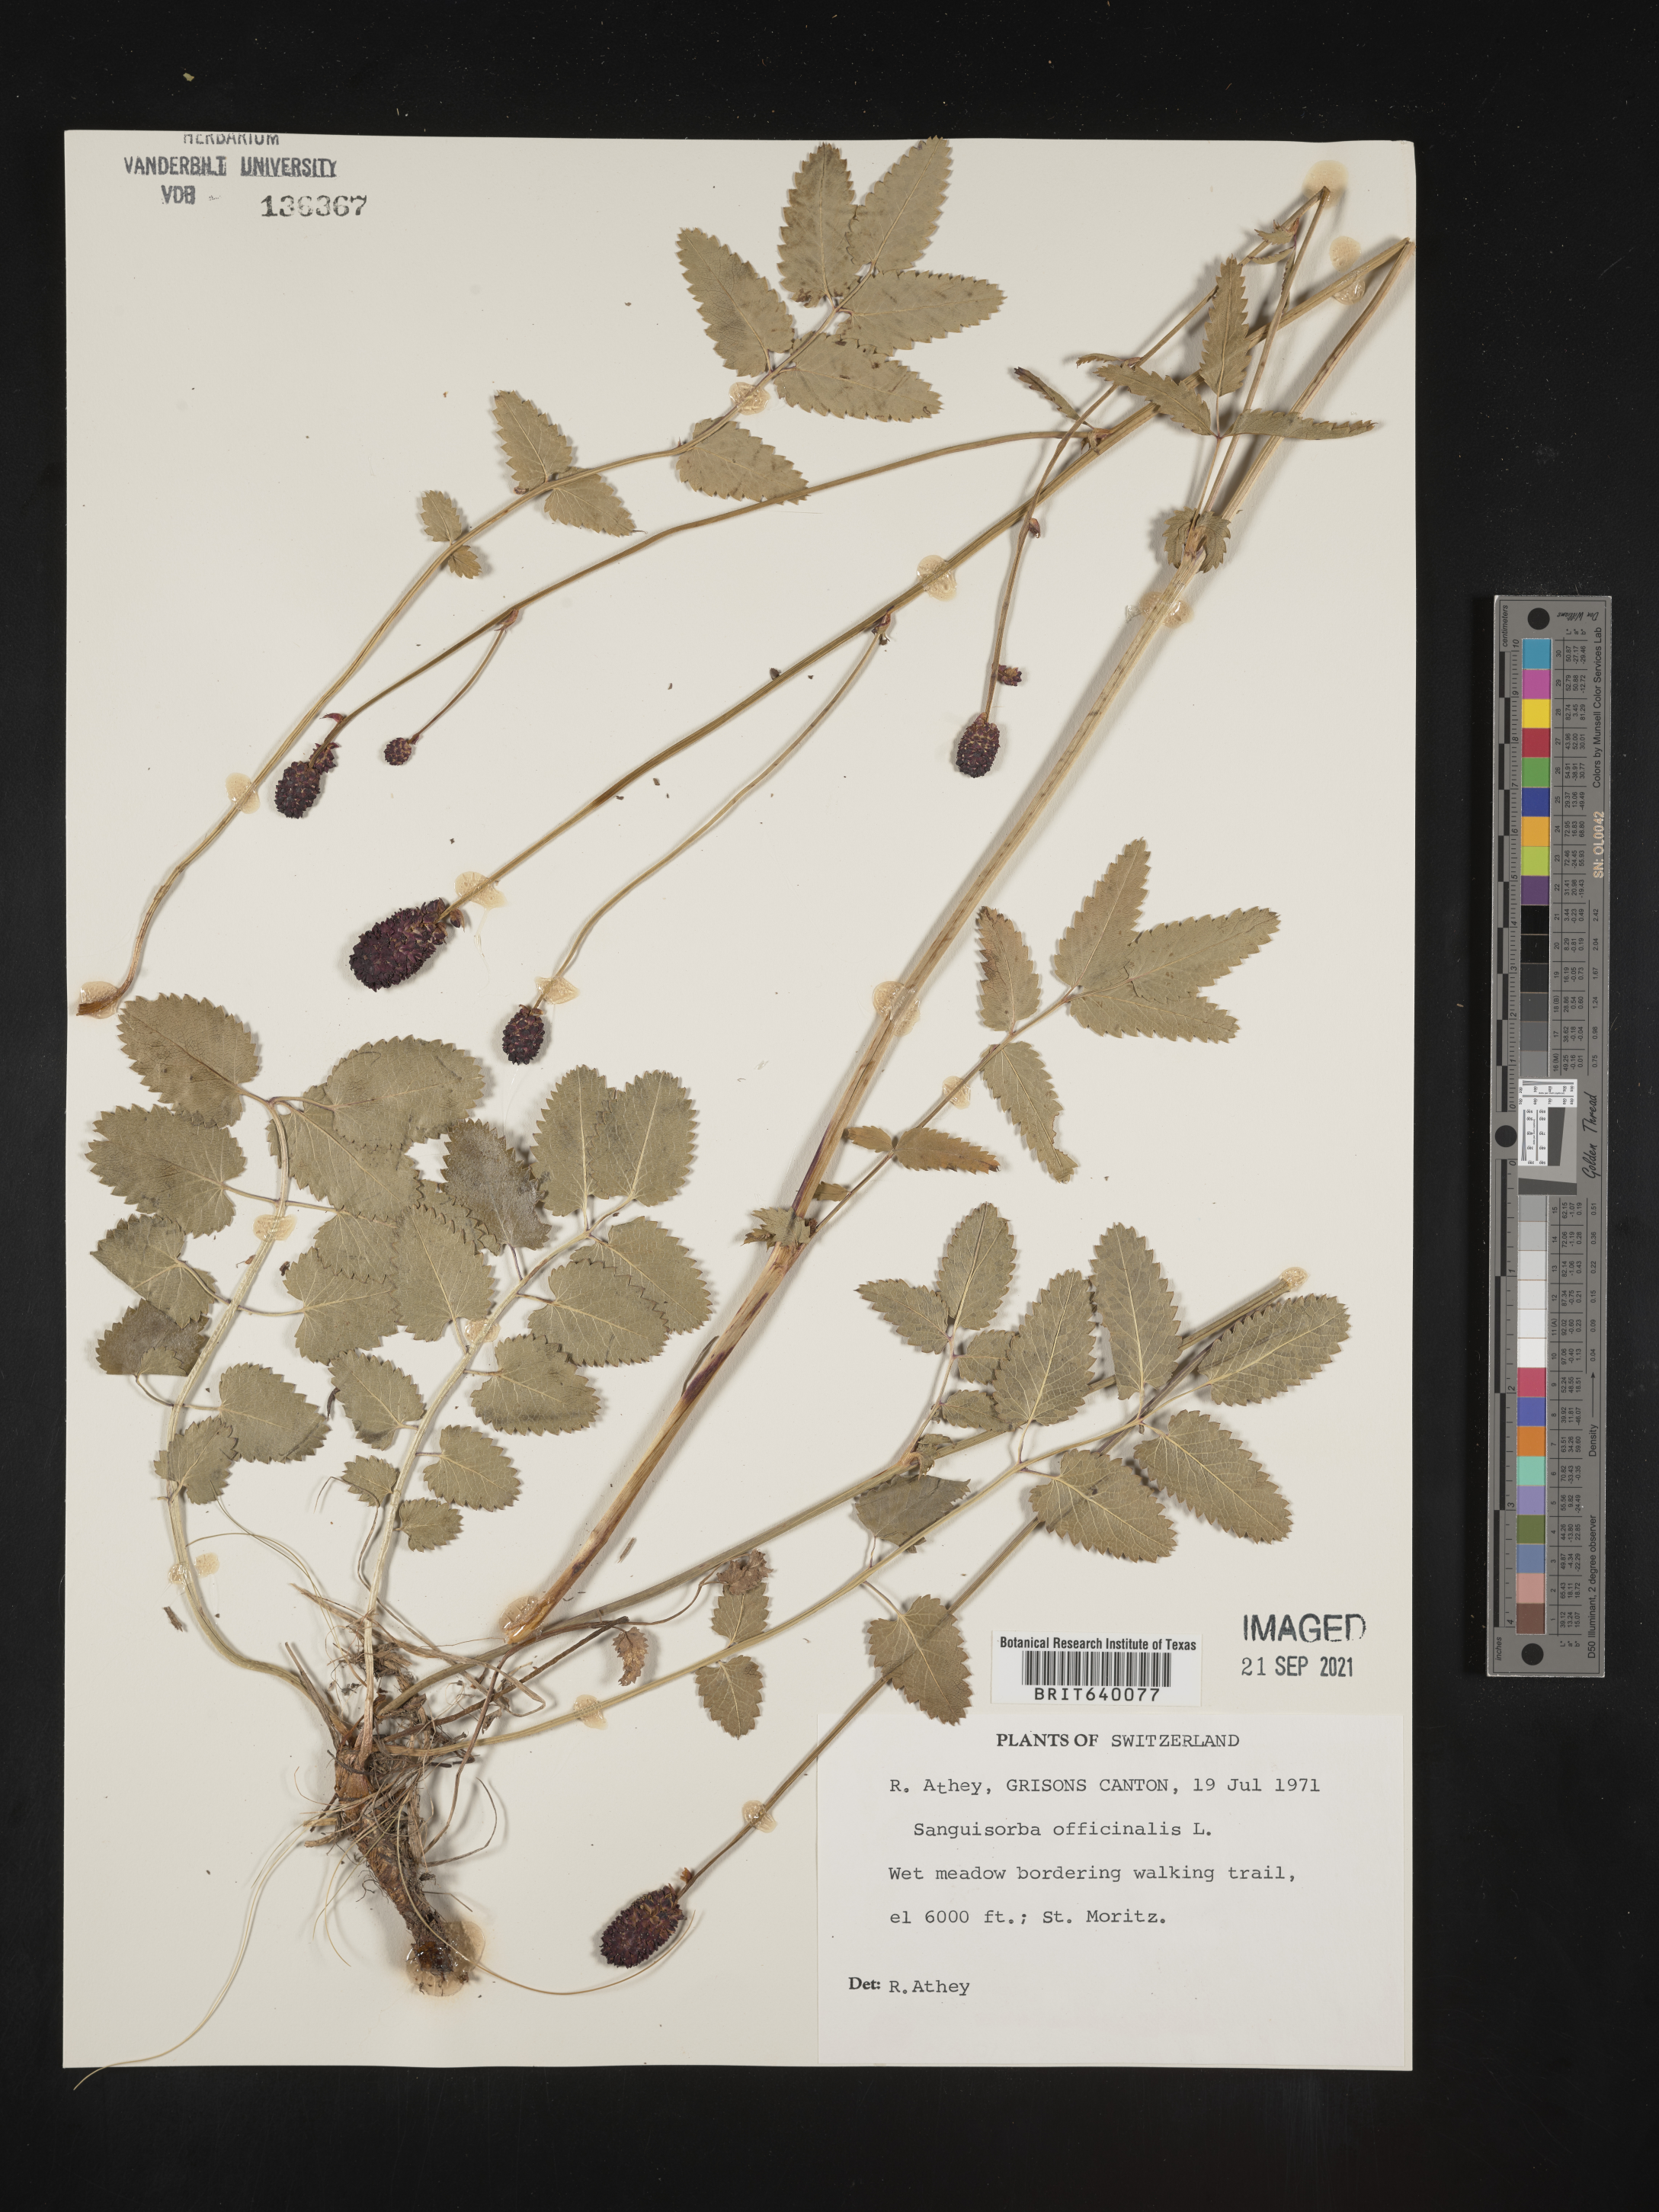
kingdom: Plantae
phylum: Tracheophyta
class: Magnoliopsida
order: Rosales
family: Rosaceae
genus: Sanguisorba
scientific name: Sanguisorba
